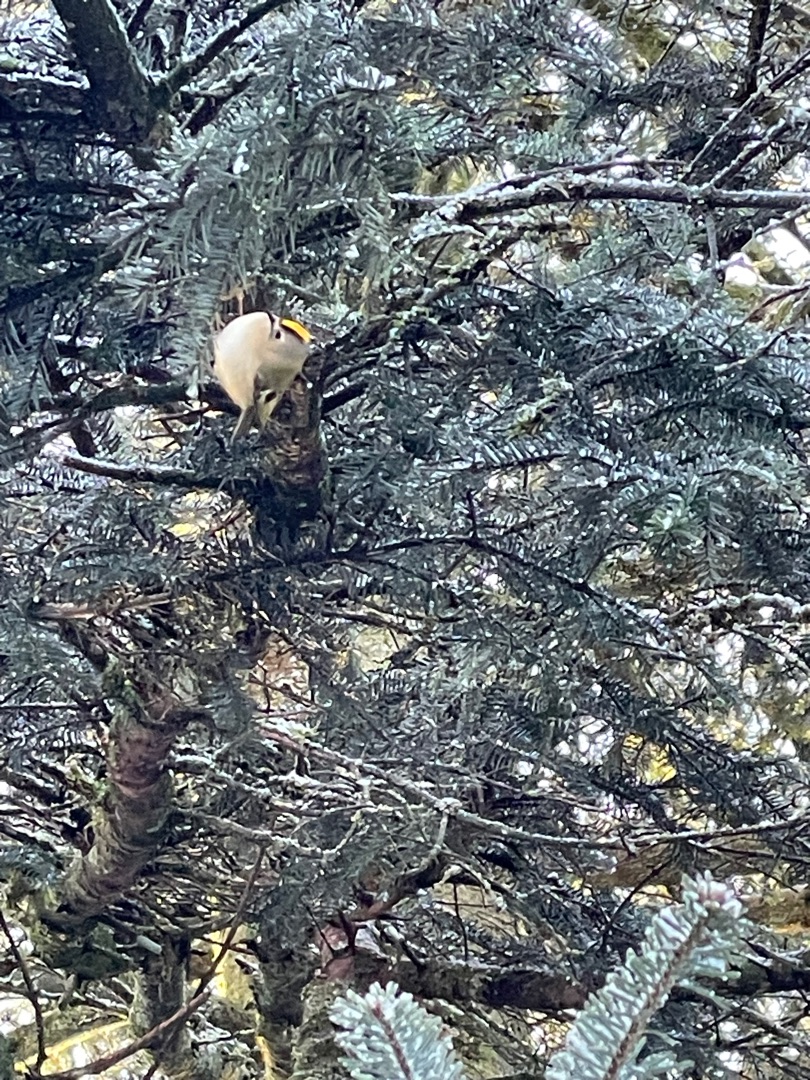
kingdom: Animalia
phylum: Chordata
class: Aves
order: Passeriformes
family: Regulidae
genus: Regulus
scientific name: Regulus regulus
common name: Fuglekonge
